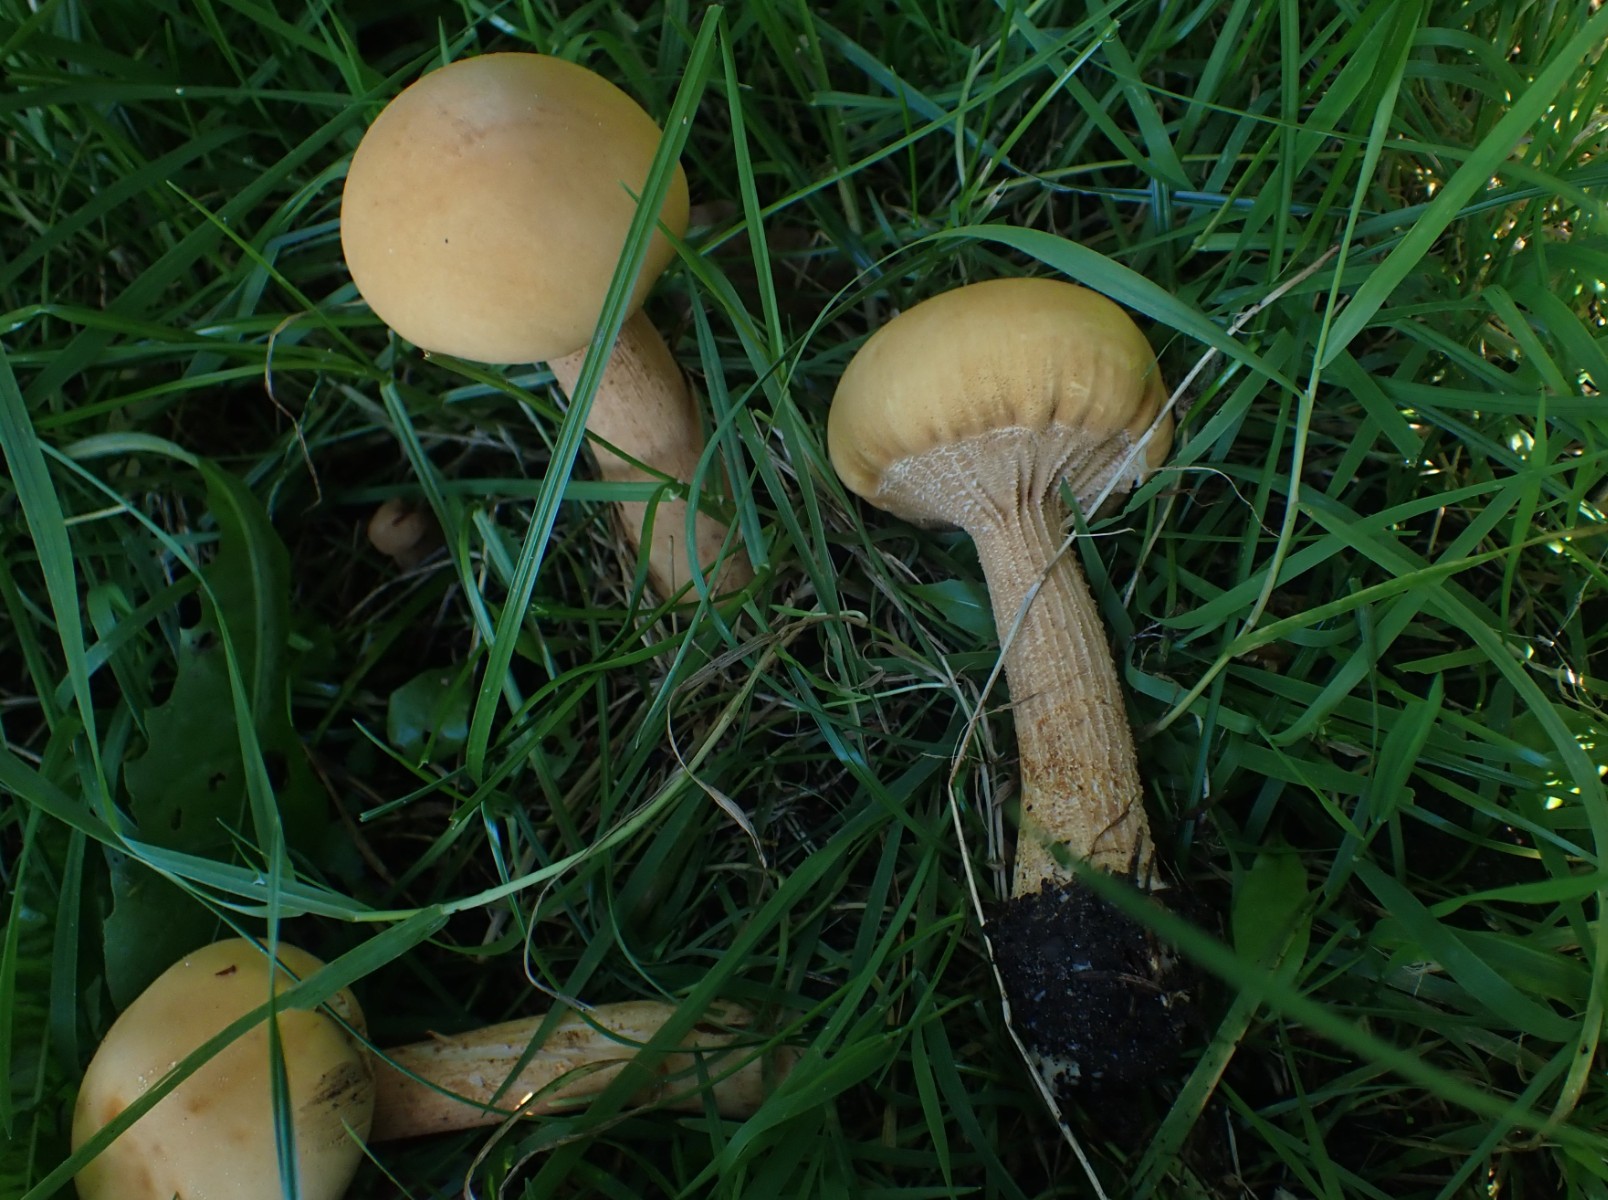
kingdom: Fungi
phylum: Basidiomycota
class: Agaricomycetes
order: Agaricales
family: Tricholomataceae
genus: Phaeolepiota
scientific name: Phaeolepiota aurea
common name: gyldenhat
